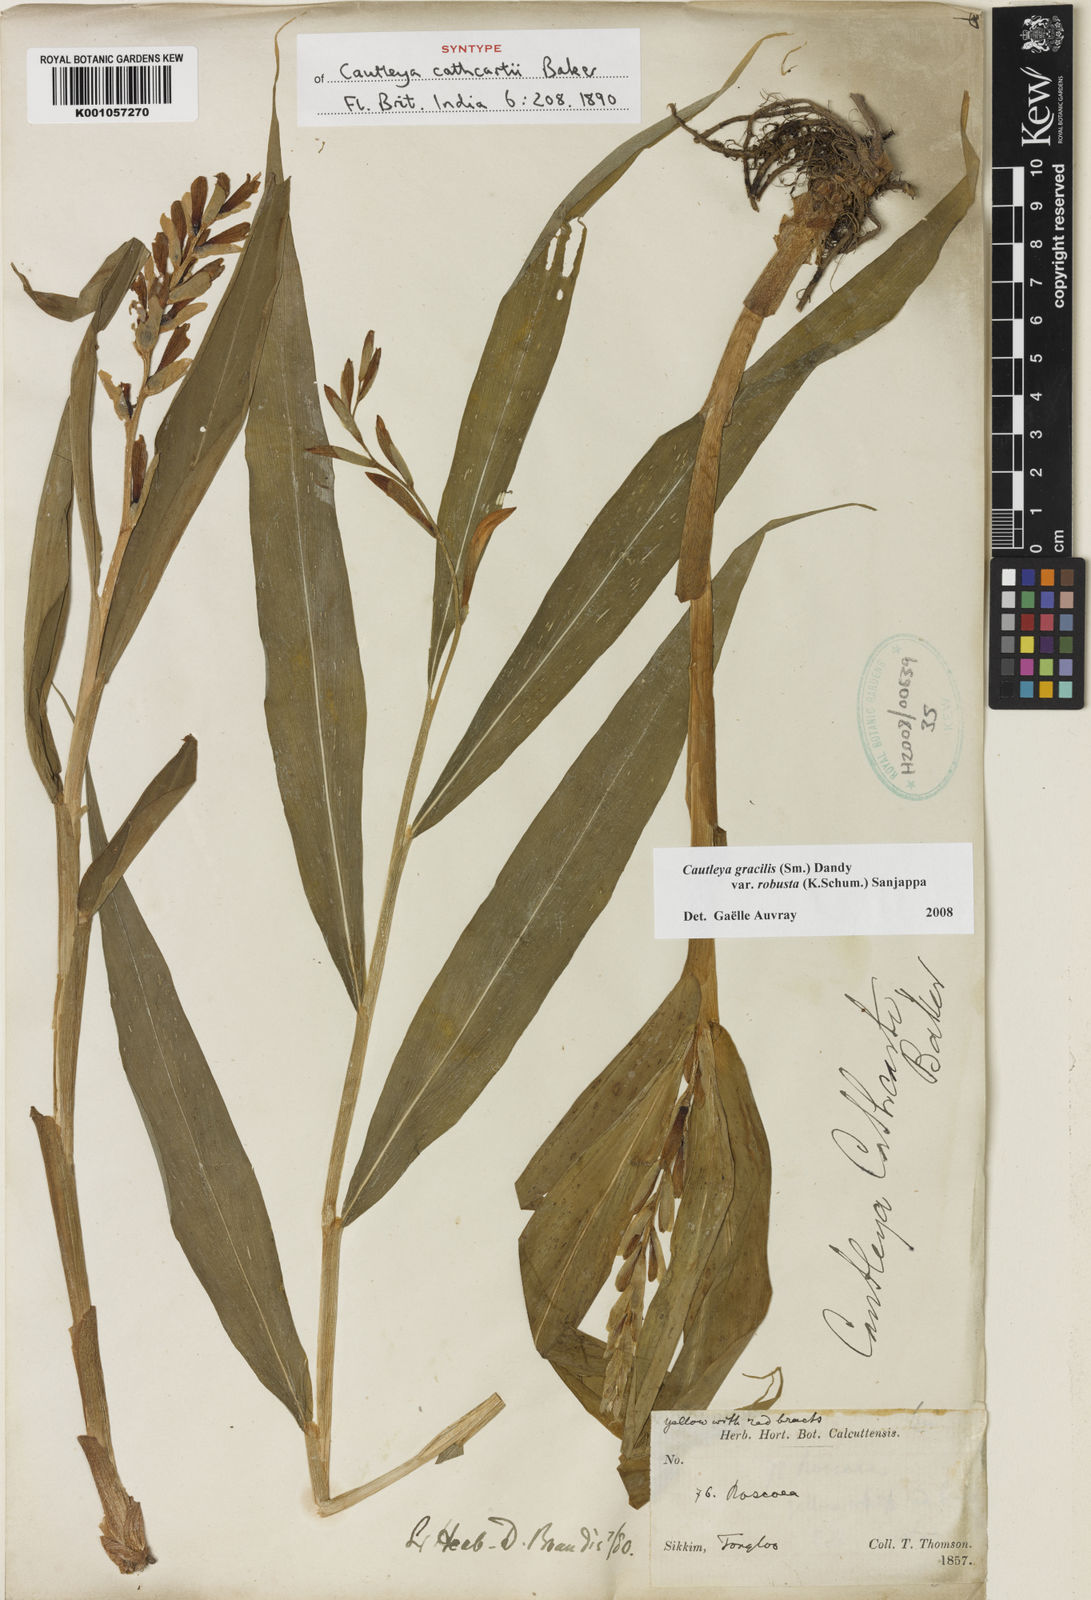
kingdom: Plantae
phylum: Tracheophyta
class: Liliopsida
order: Zingiberales
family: Zingiberaceae
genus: Cautleya
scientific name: Cautleya gracilis
